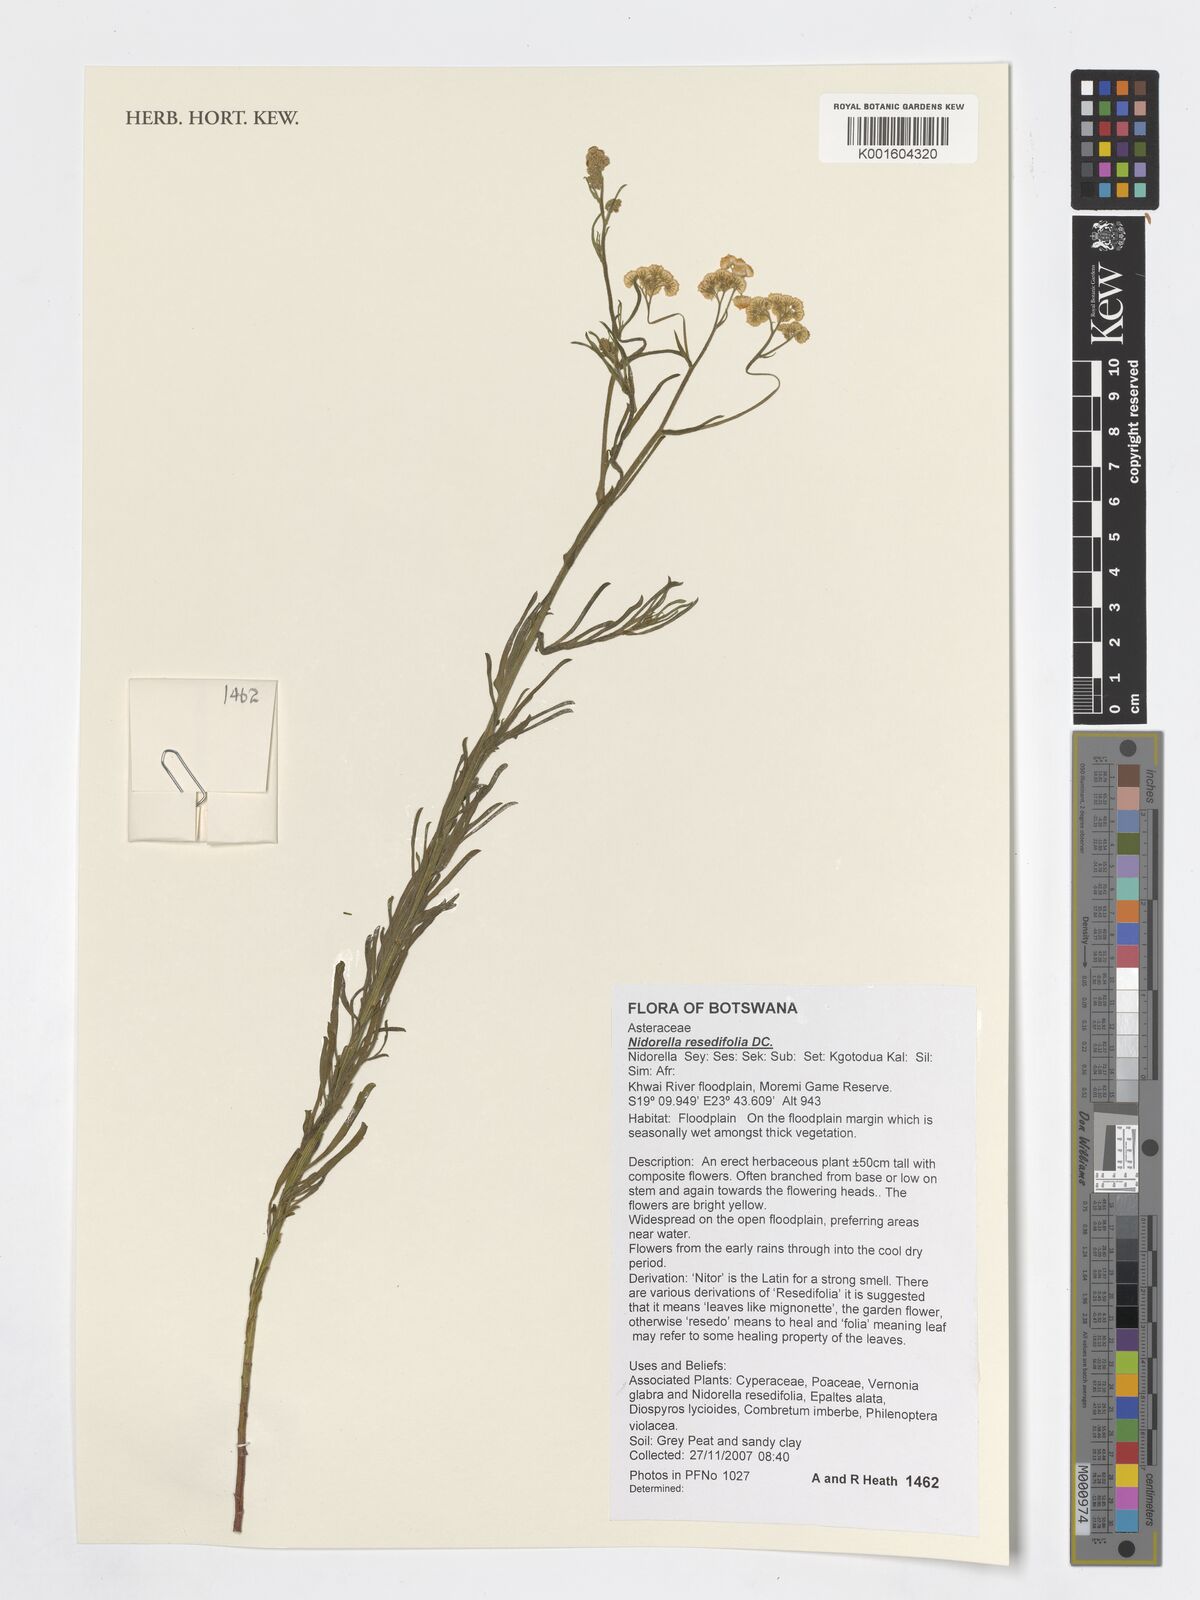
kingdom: Plantae
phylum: Tracheophyta
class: Magnoliopsida
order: Asterales
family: Asteraceae
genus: Nidorella
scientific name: Nidorella resedifolia
